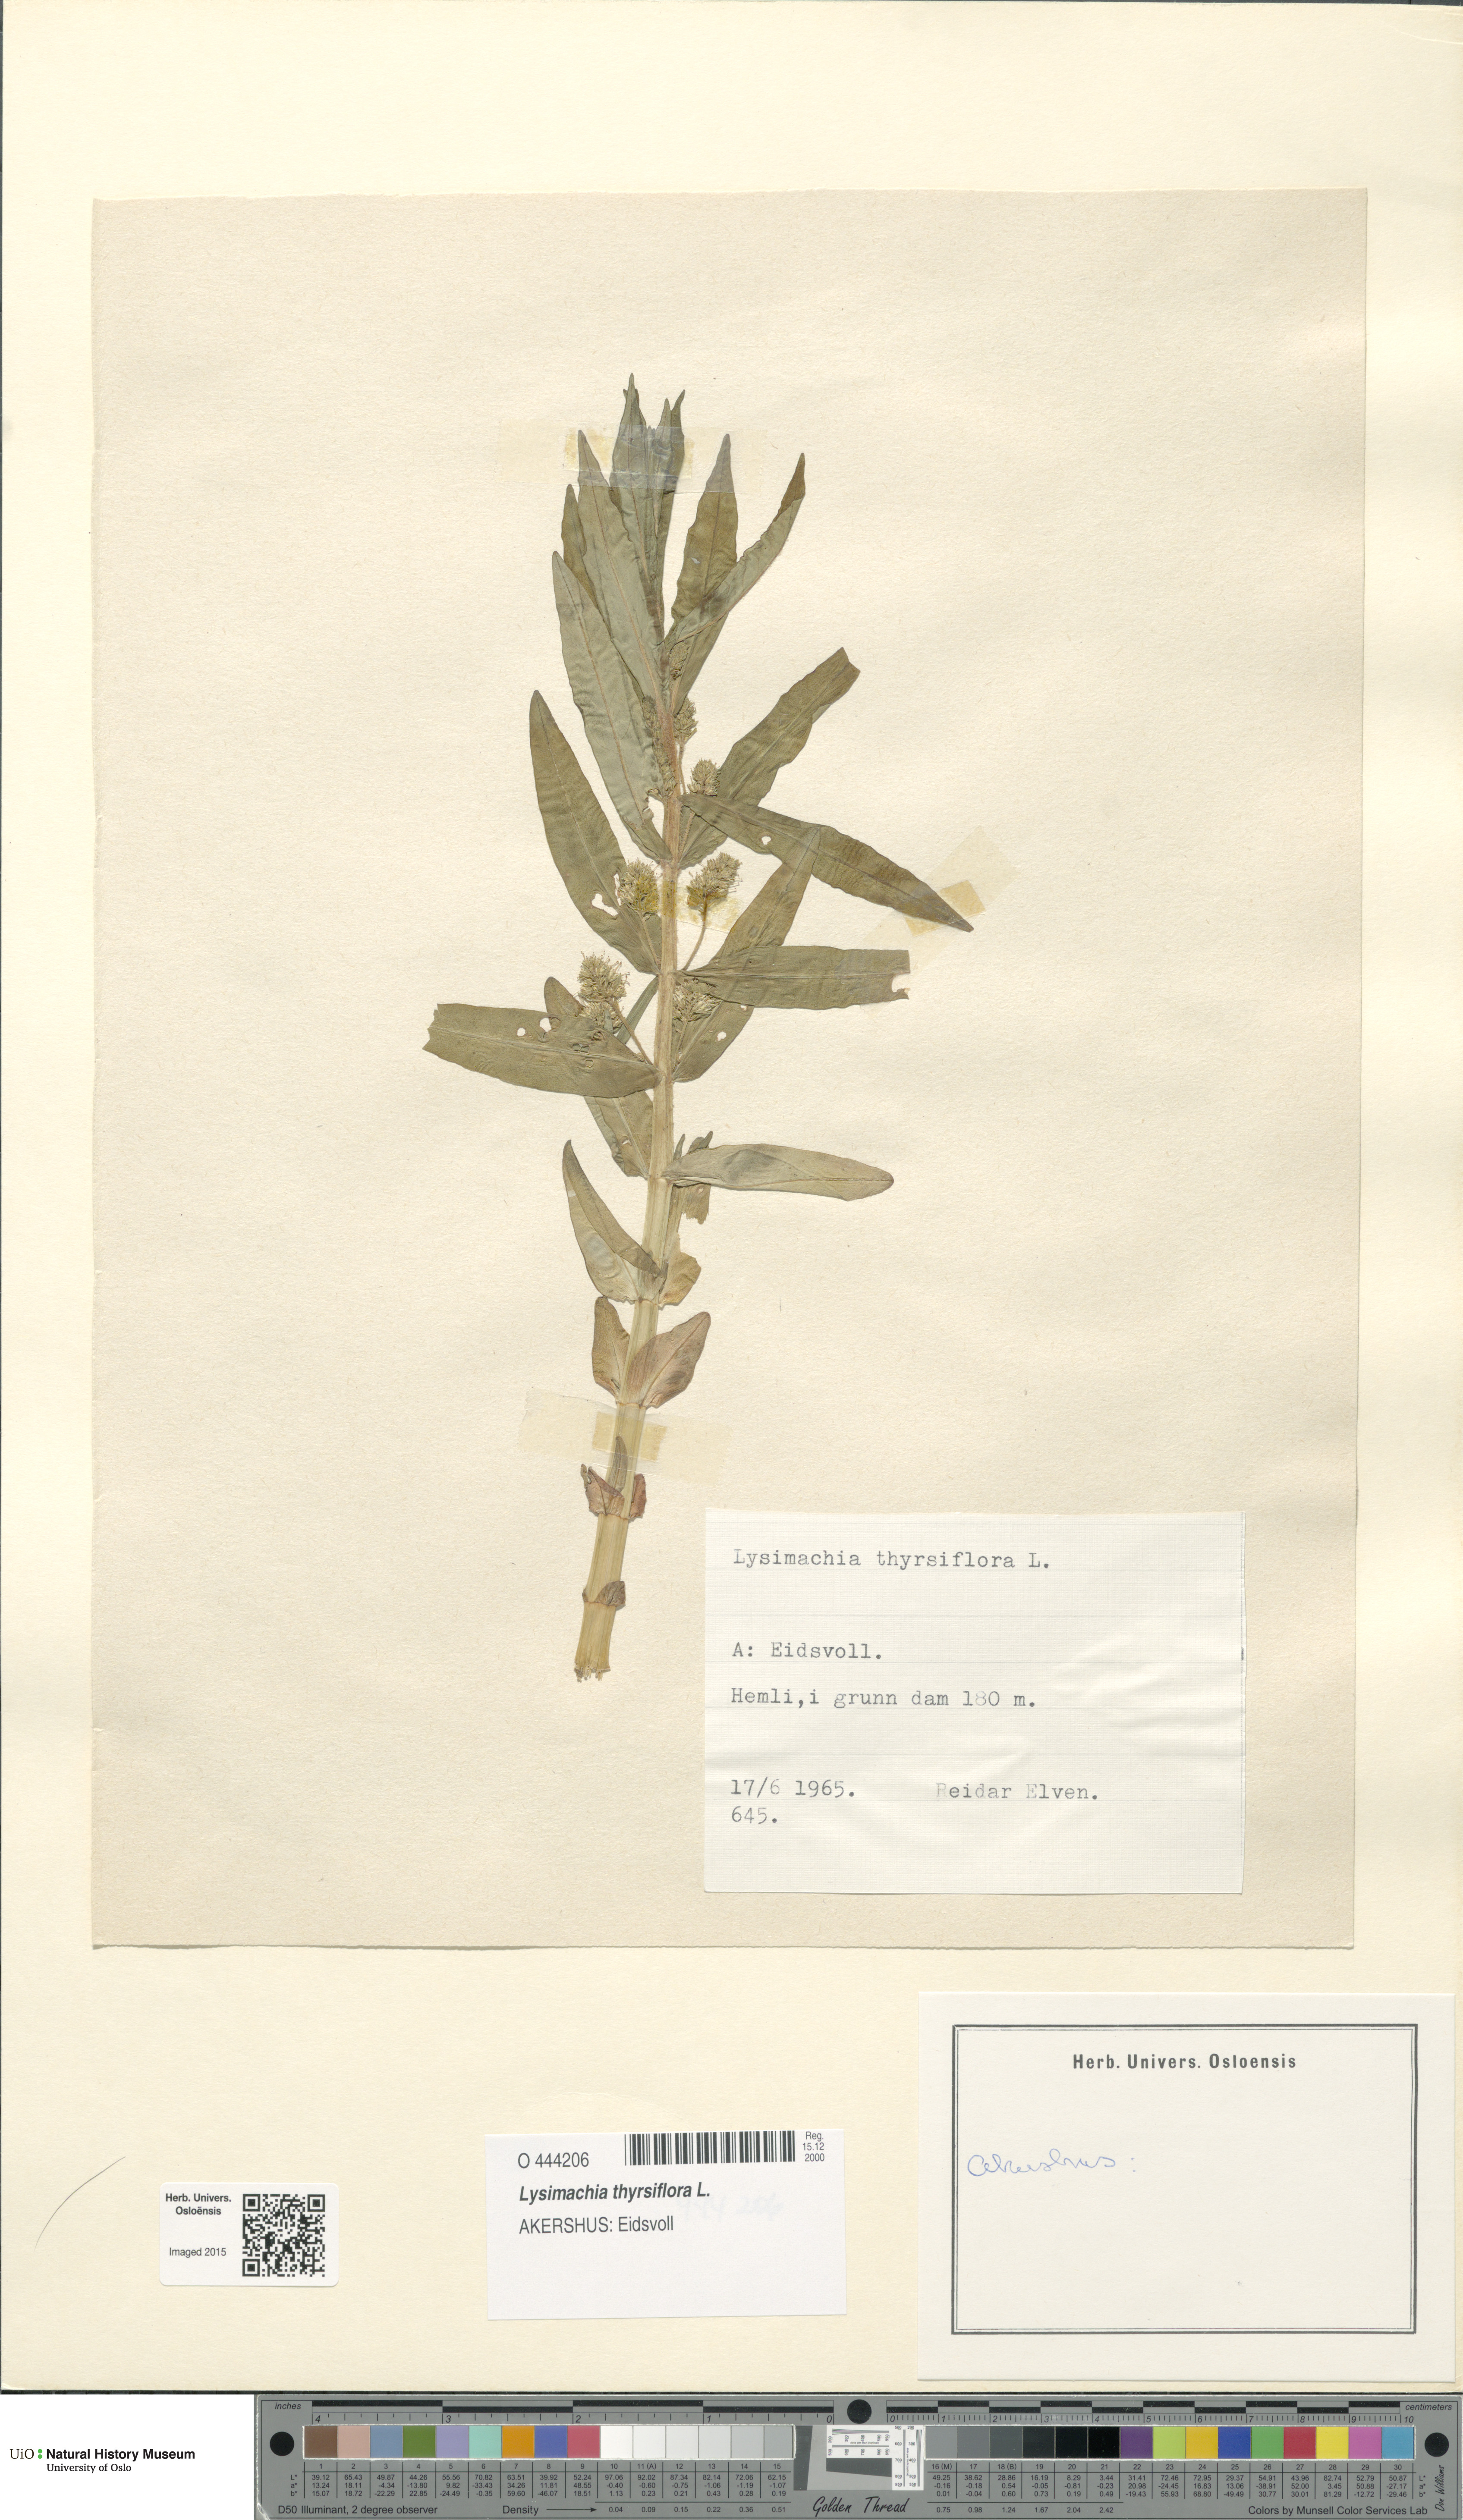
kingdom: Plantae
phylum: Tracheophyta
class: Magnoliopsida
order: Ericales
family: Primulaceae
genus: Lysimachia
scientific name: Lysimachia thyrsiflora
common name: Tufted loosestrife
